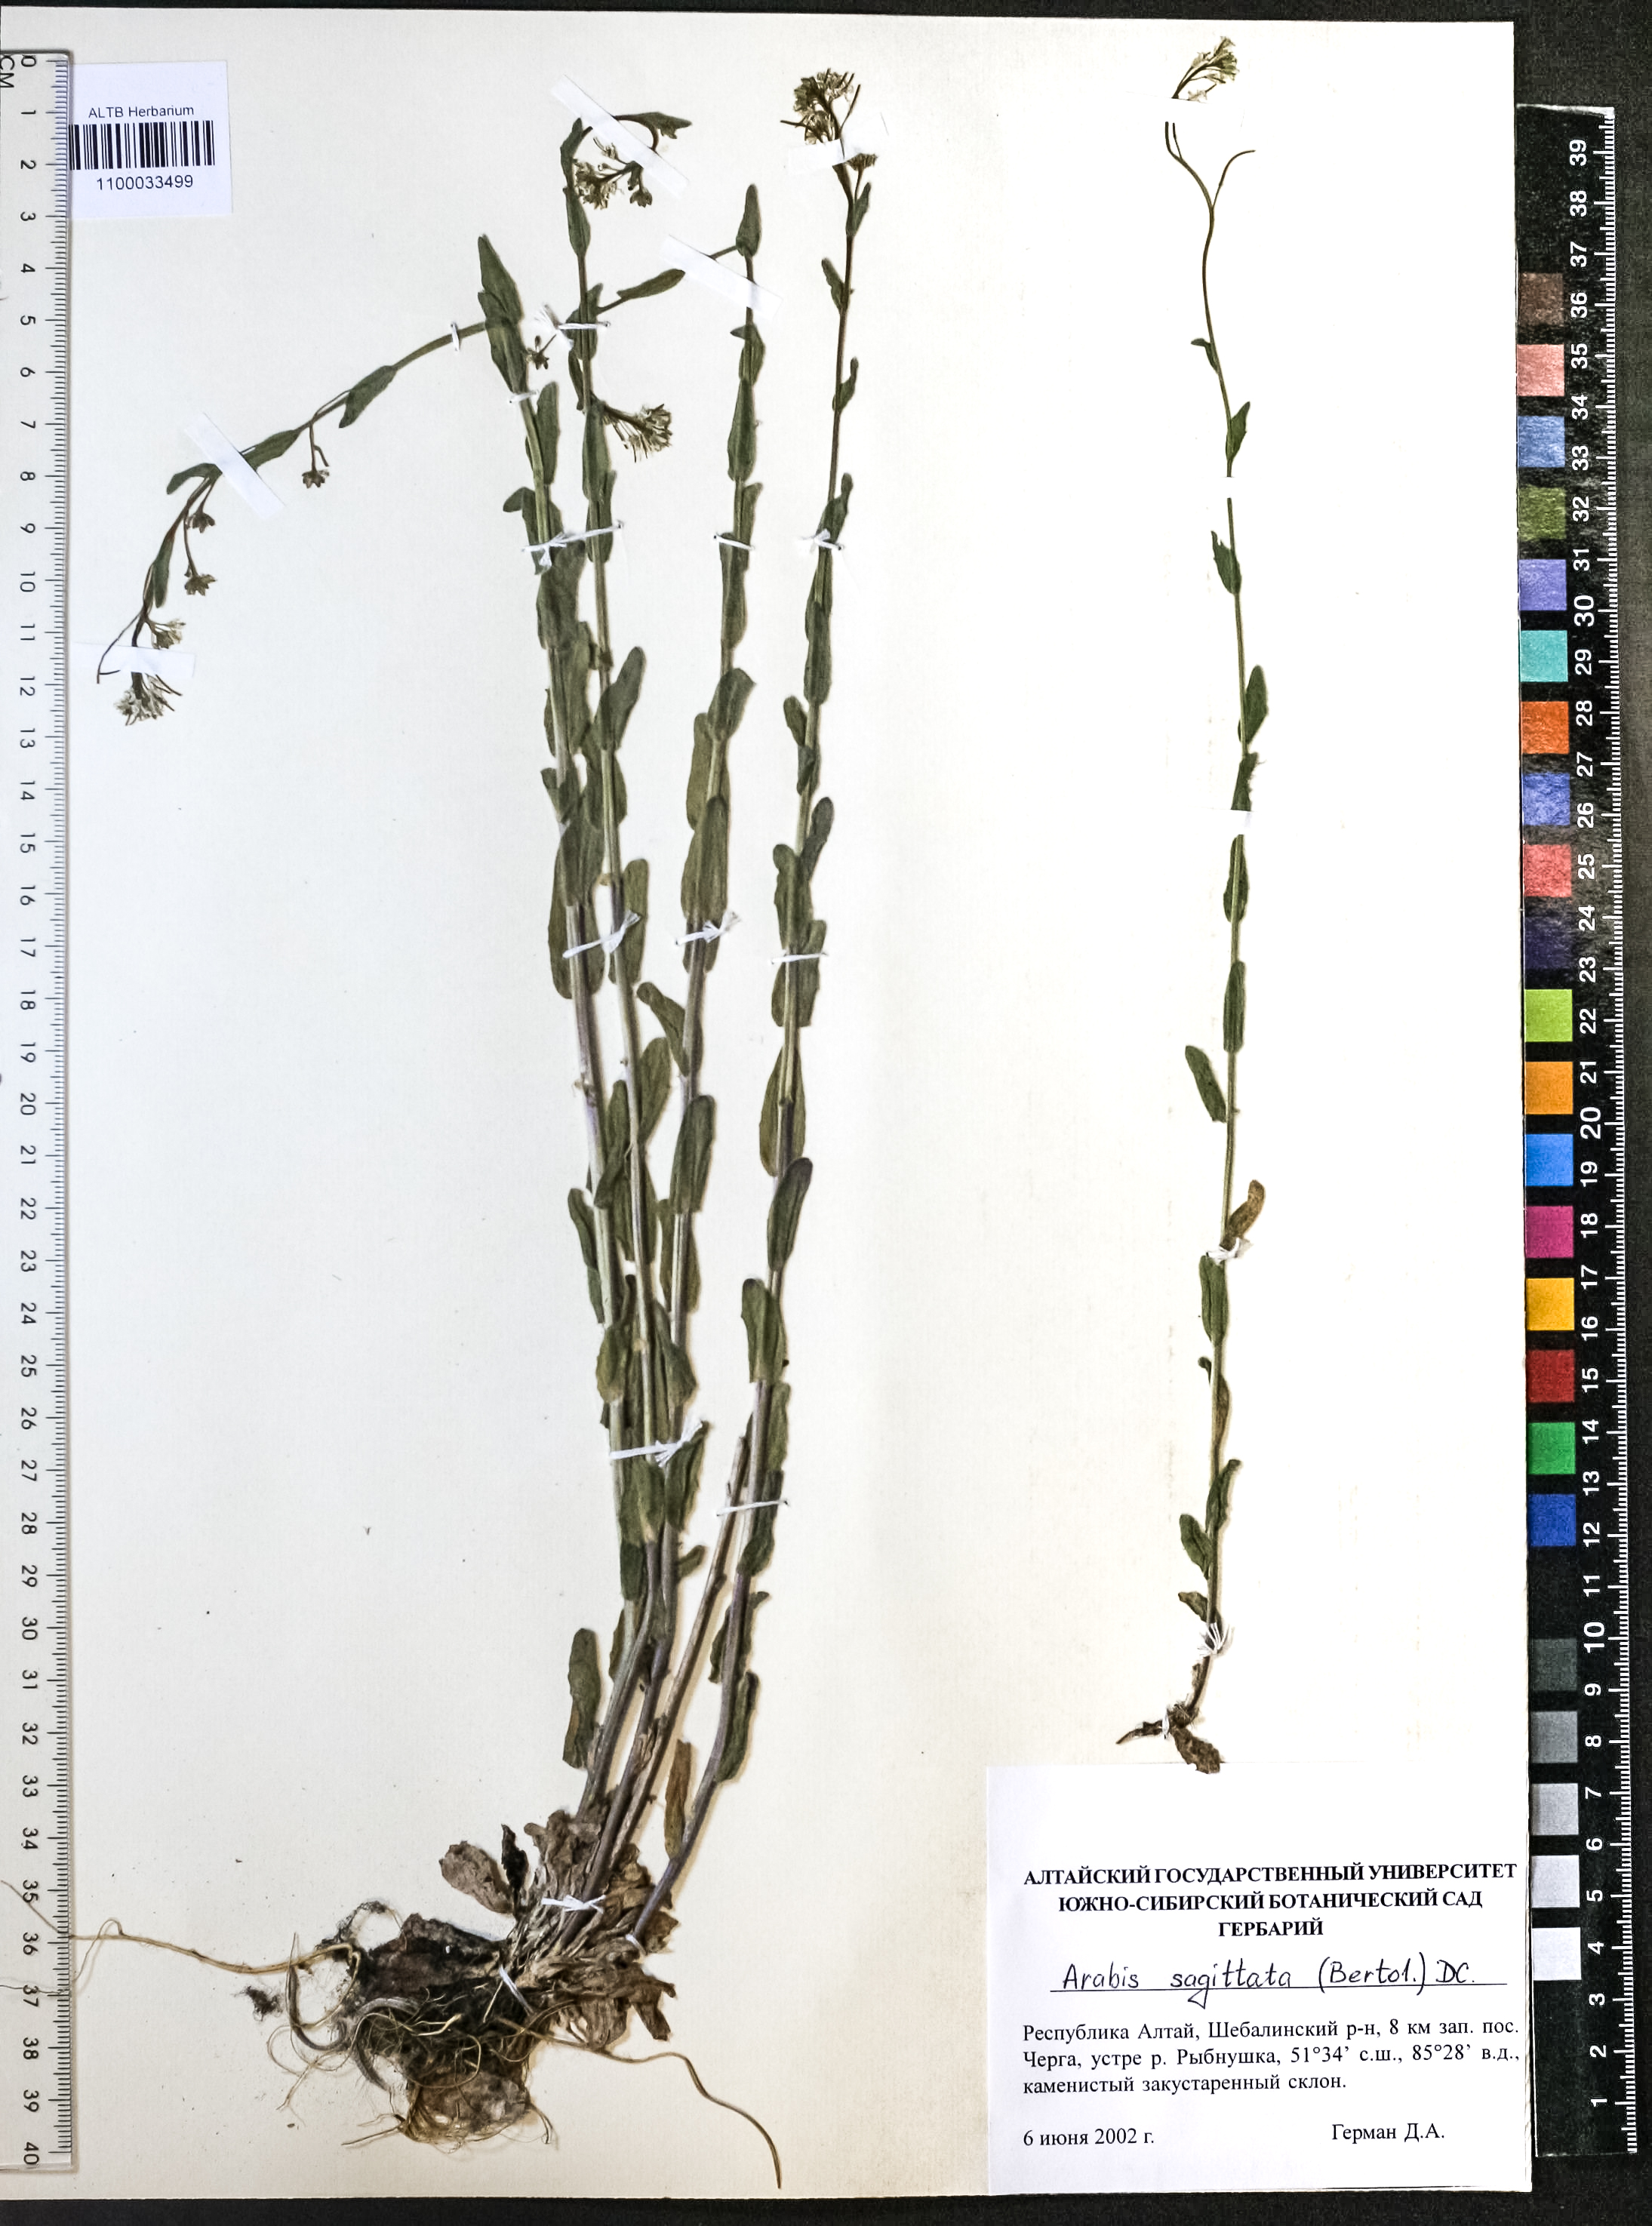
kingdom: Plantae
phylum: Tracheophyta
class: Magnoliopsida
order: Brassicales
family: Brassicaceae
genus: Arabis
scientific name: Arabis sagittata
